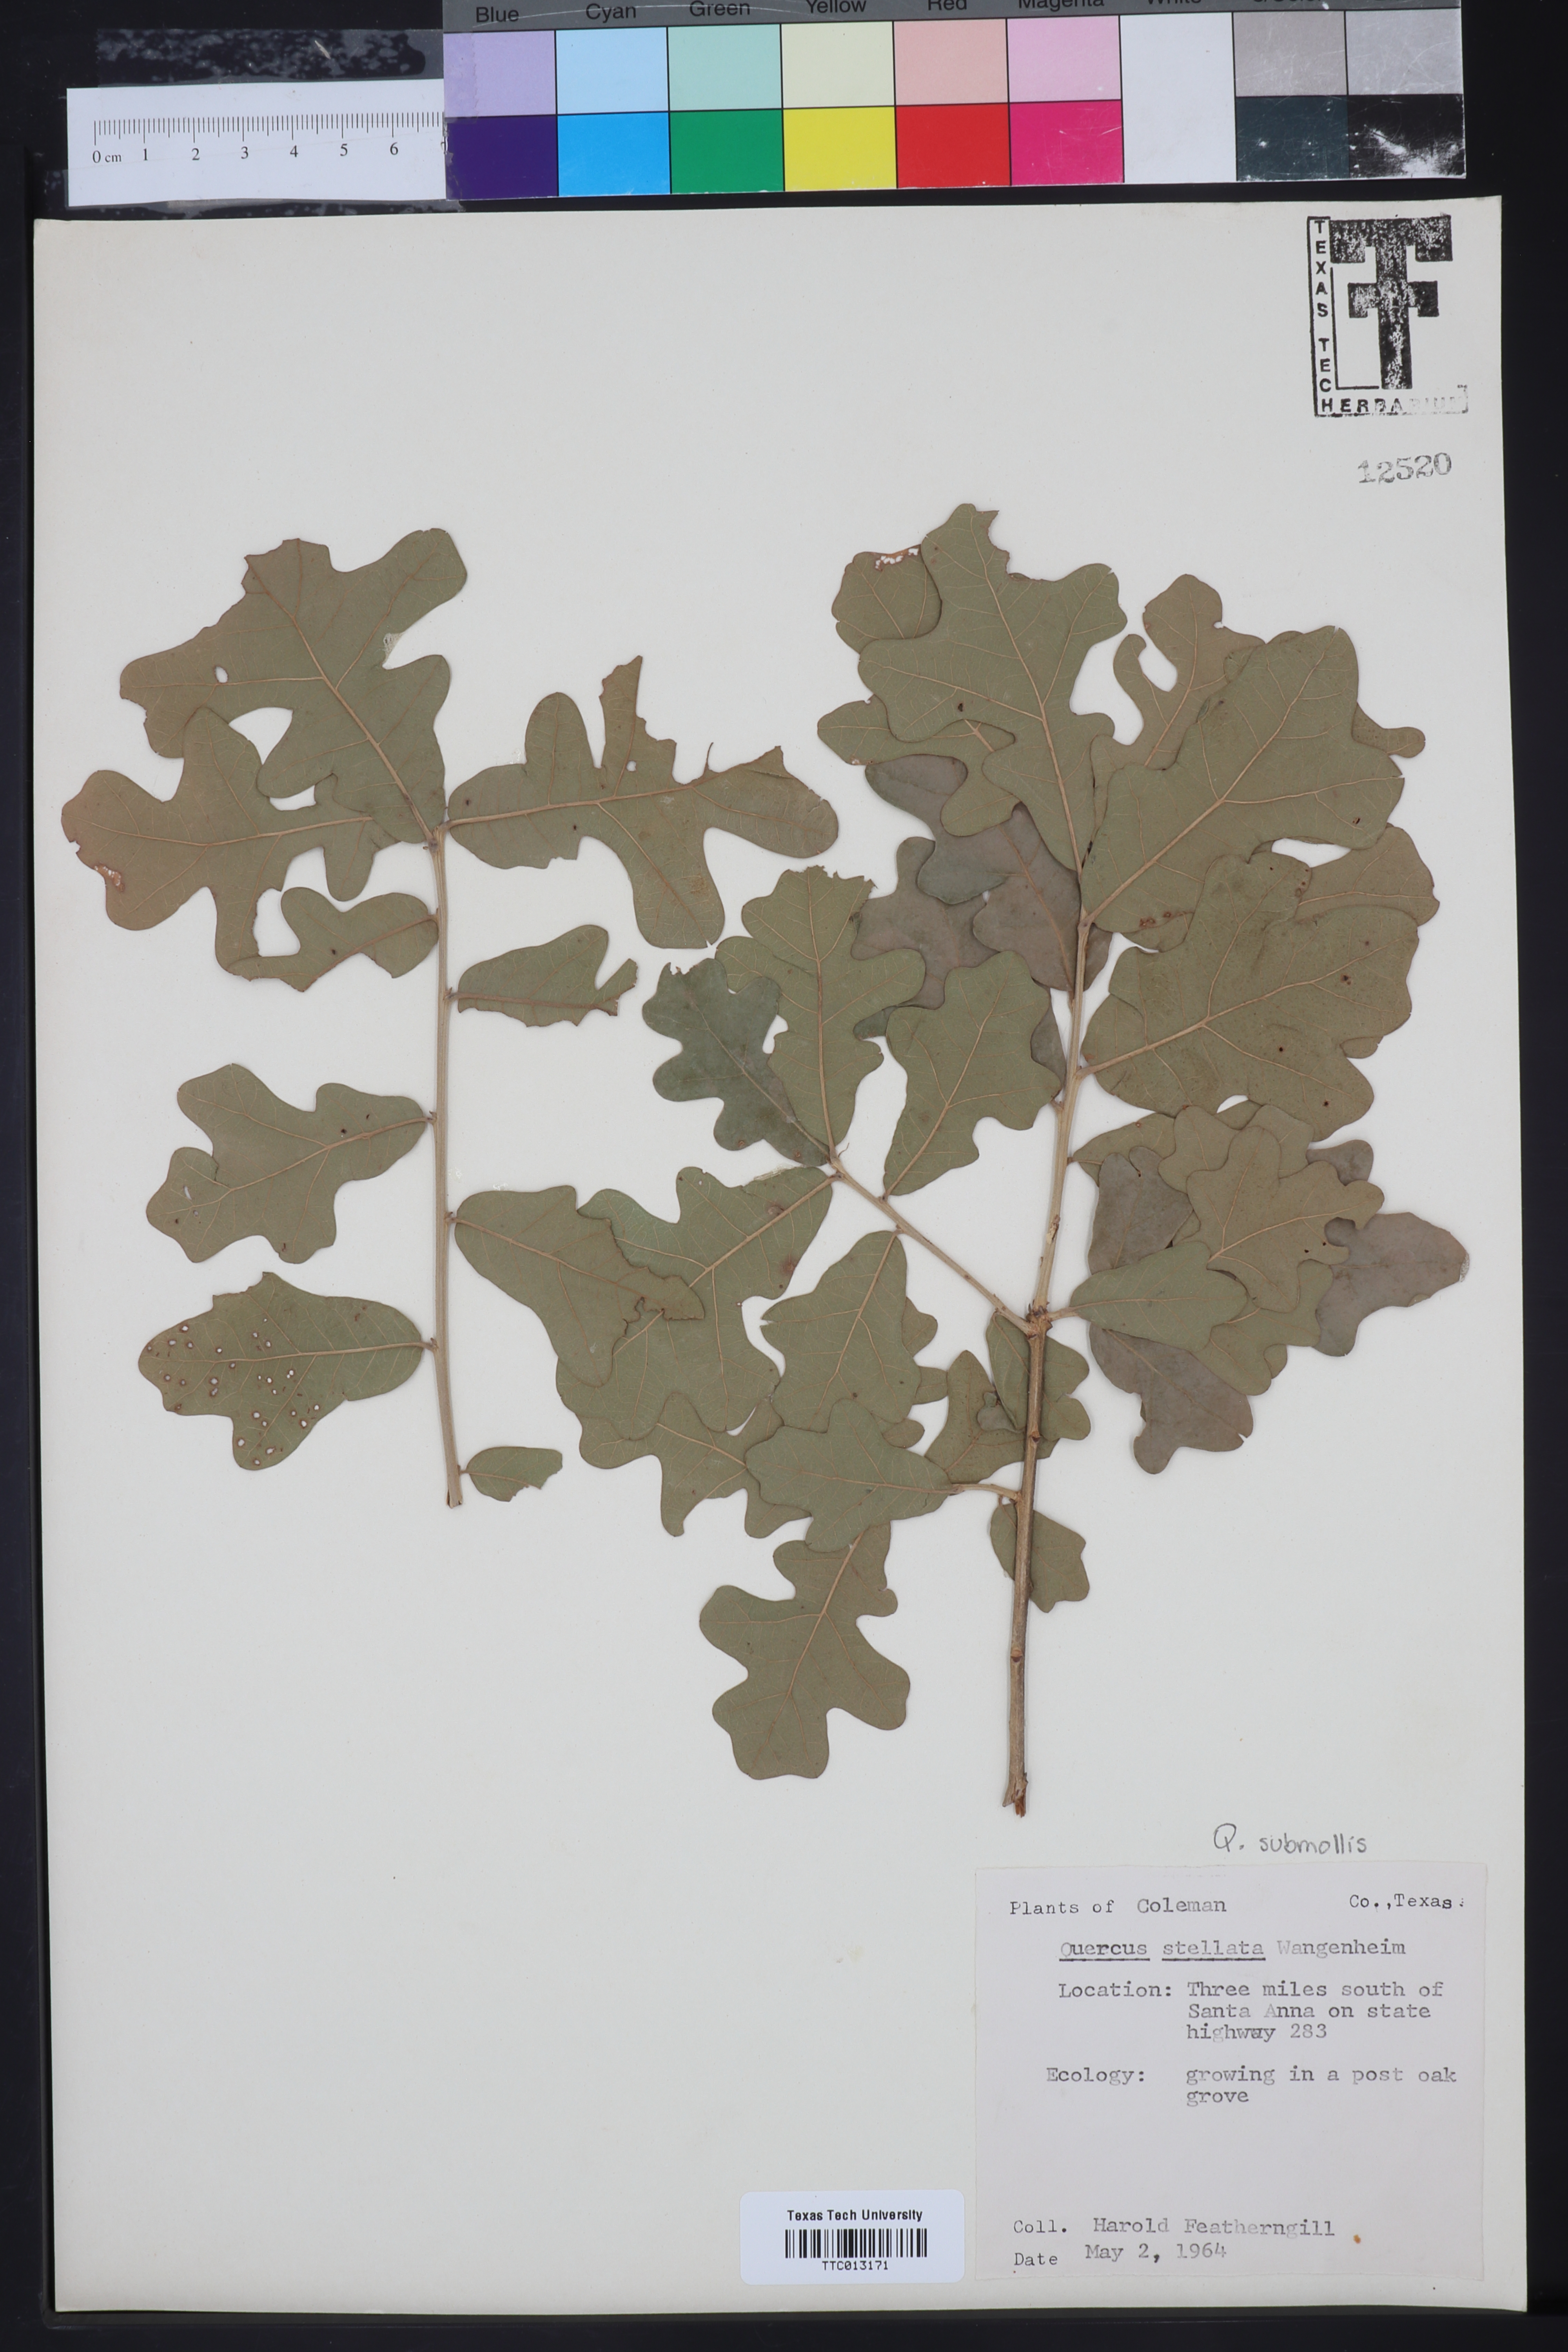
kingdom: Plantae
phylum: Tracheophyta
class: Magnoliopsida
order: Fagales
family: Fagaceae
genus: Quercus
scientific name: Quercus stellata
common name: Post oak
